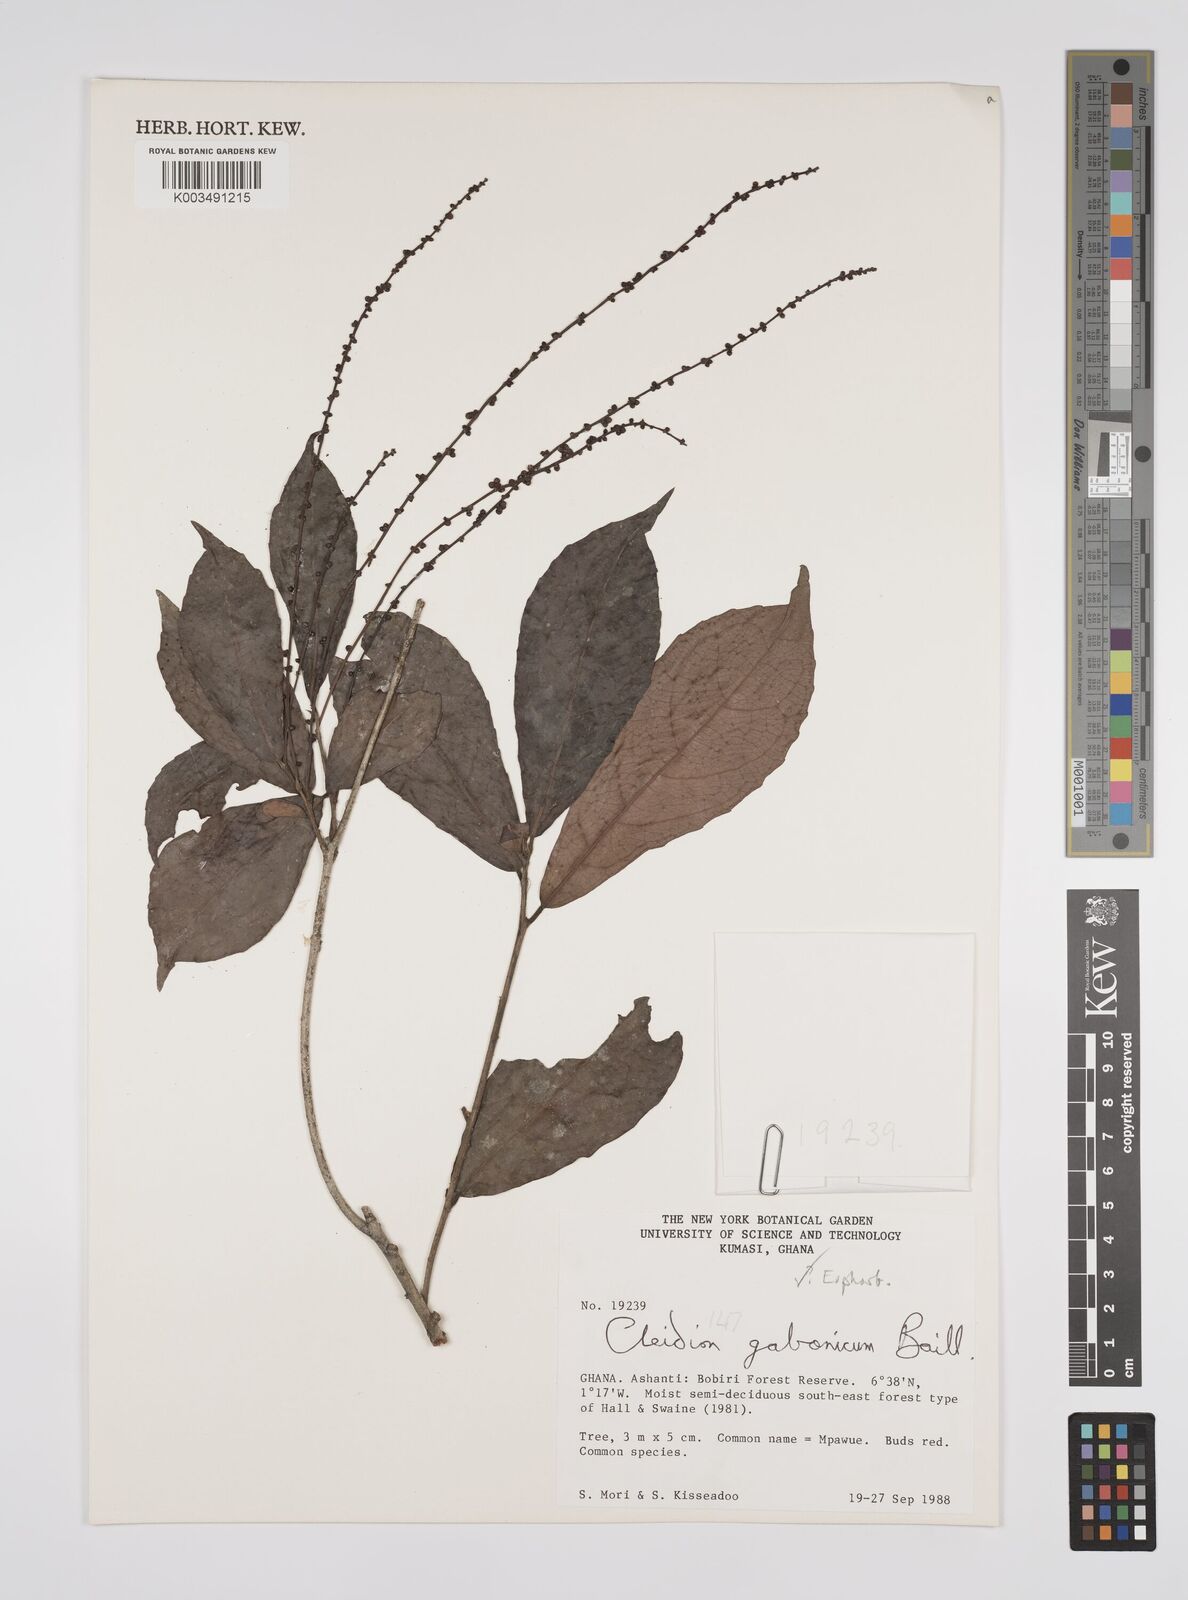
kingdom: Plantae
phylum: Tracheophyta
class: Magnoliopsida
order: Malpighiales
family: Euphorbiaceae
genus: Cleidion
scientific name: Cleidion gabonicum
